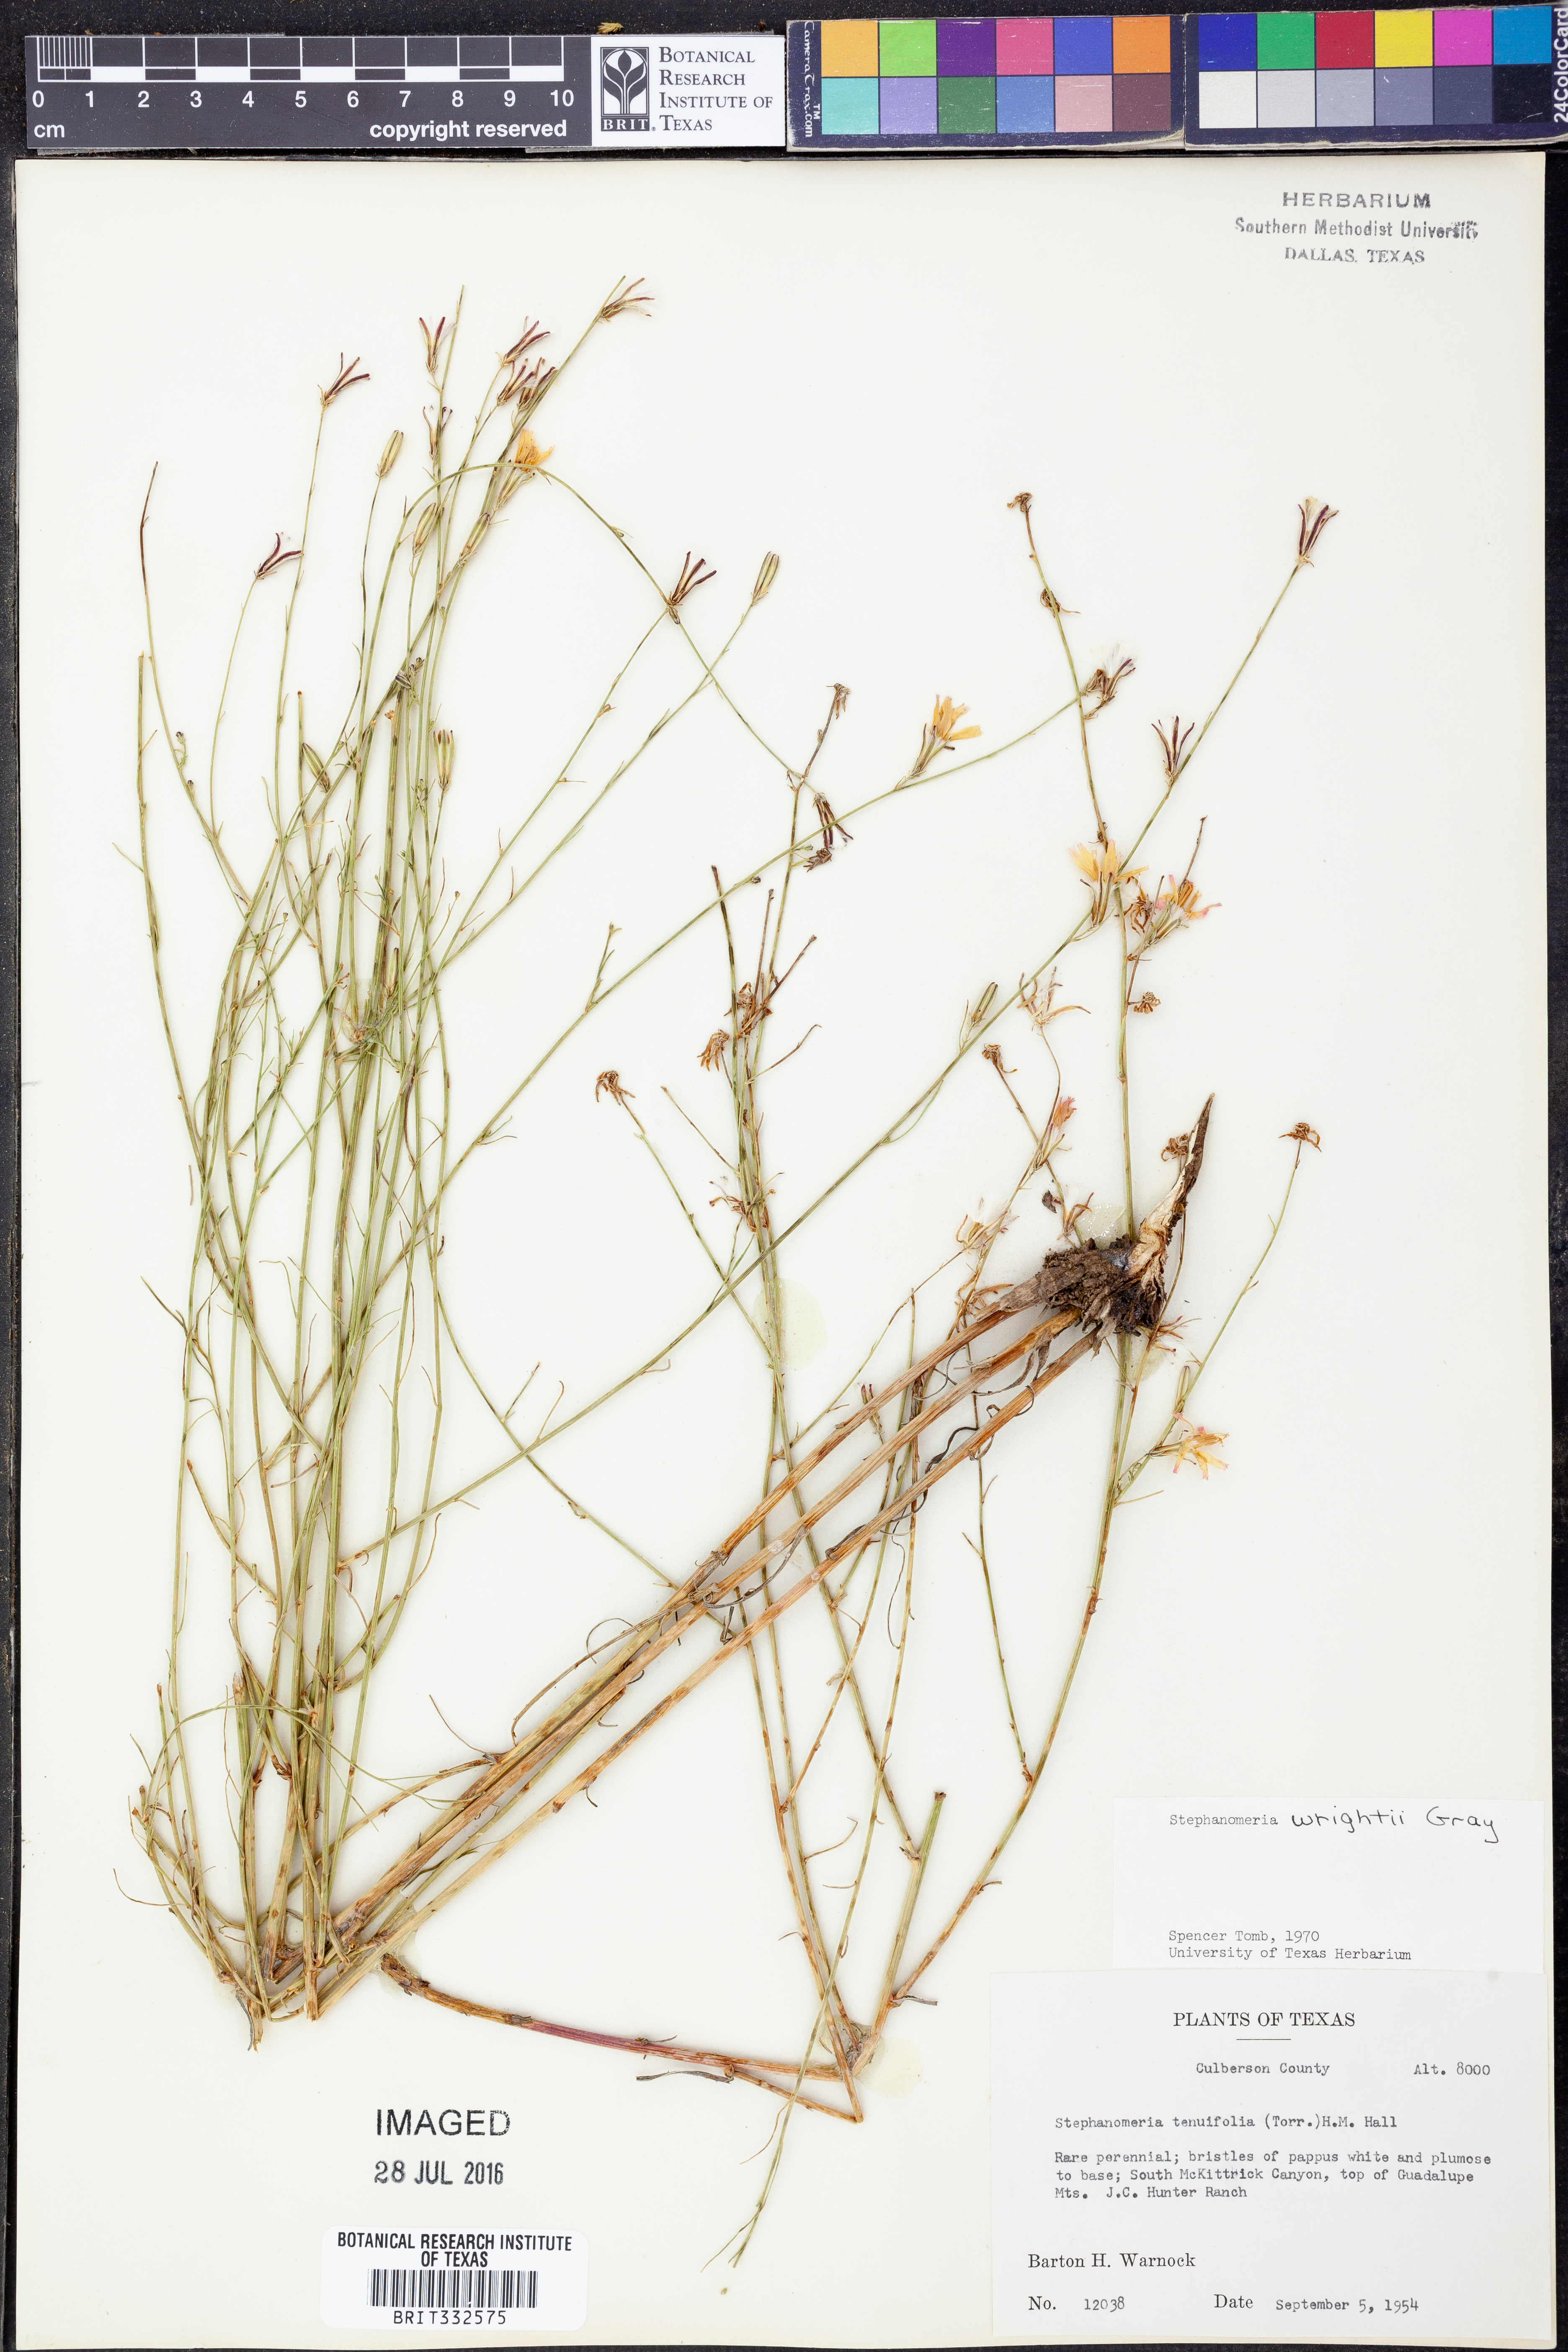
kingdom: Plantae
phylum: Tracheophyta
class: Magnoliopsida
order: Asterales
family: Asteraceae
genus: Stephanomeria
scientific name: Stephanomeria tenuifolia
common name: Slender wirelettuce
